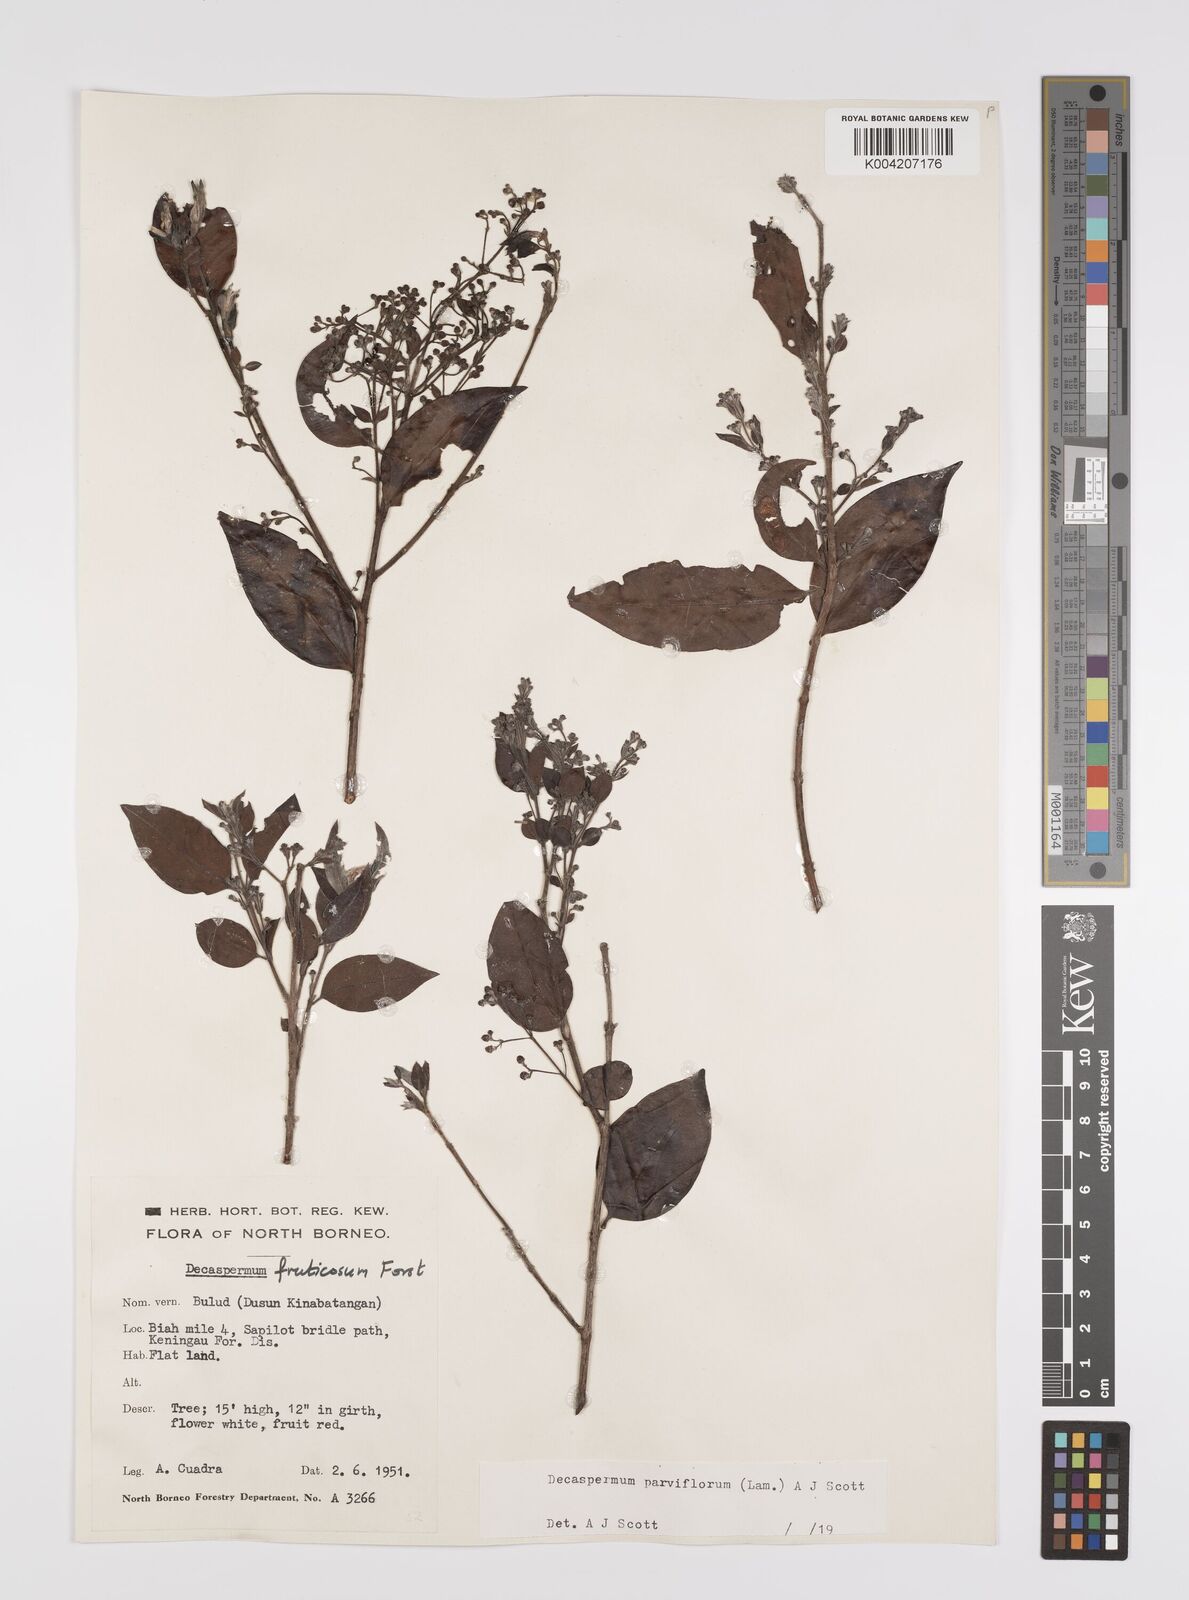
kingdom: Plantae
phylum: Tracheophyta
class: Magnoliopsida
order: Myrtales
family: Myrtaceae
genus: Decaspermum
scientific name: Decaspermum fruticosum
